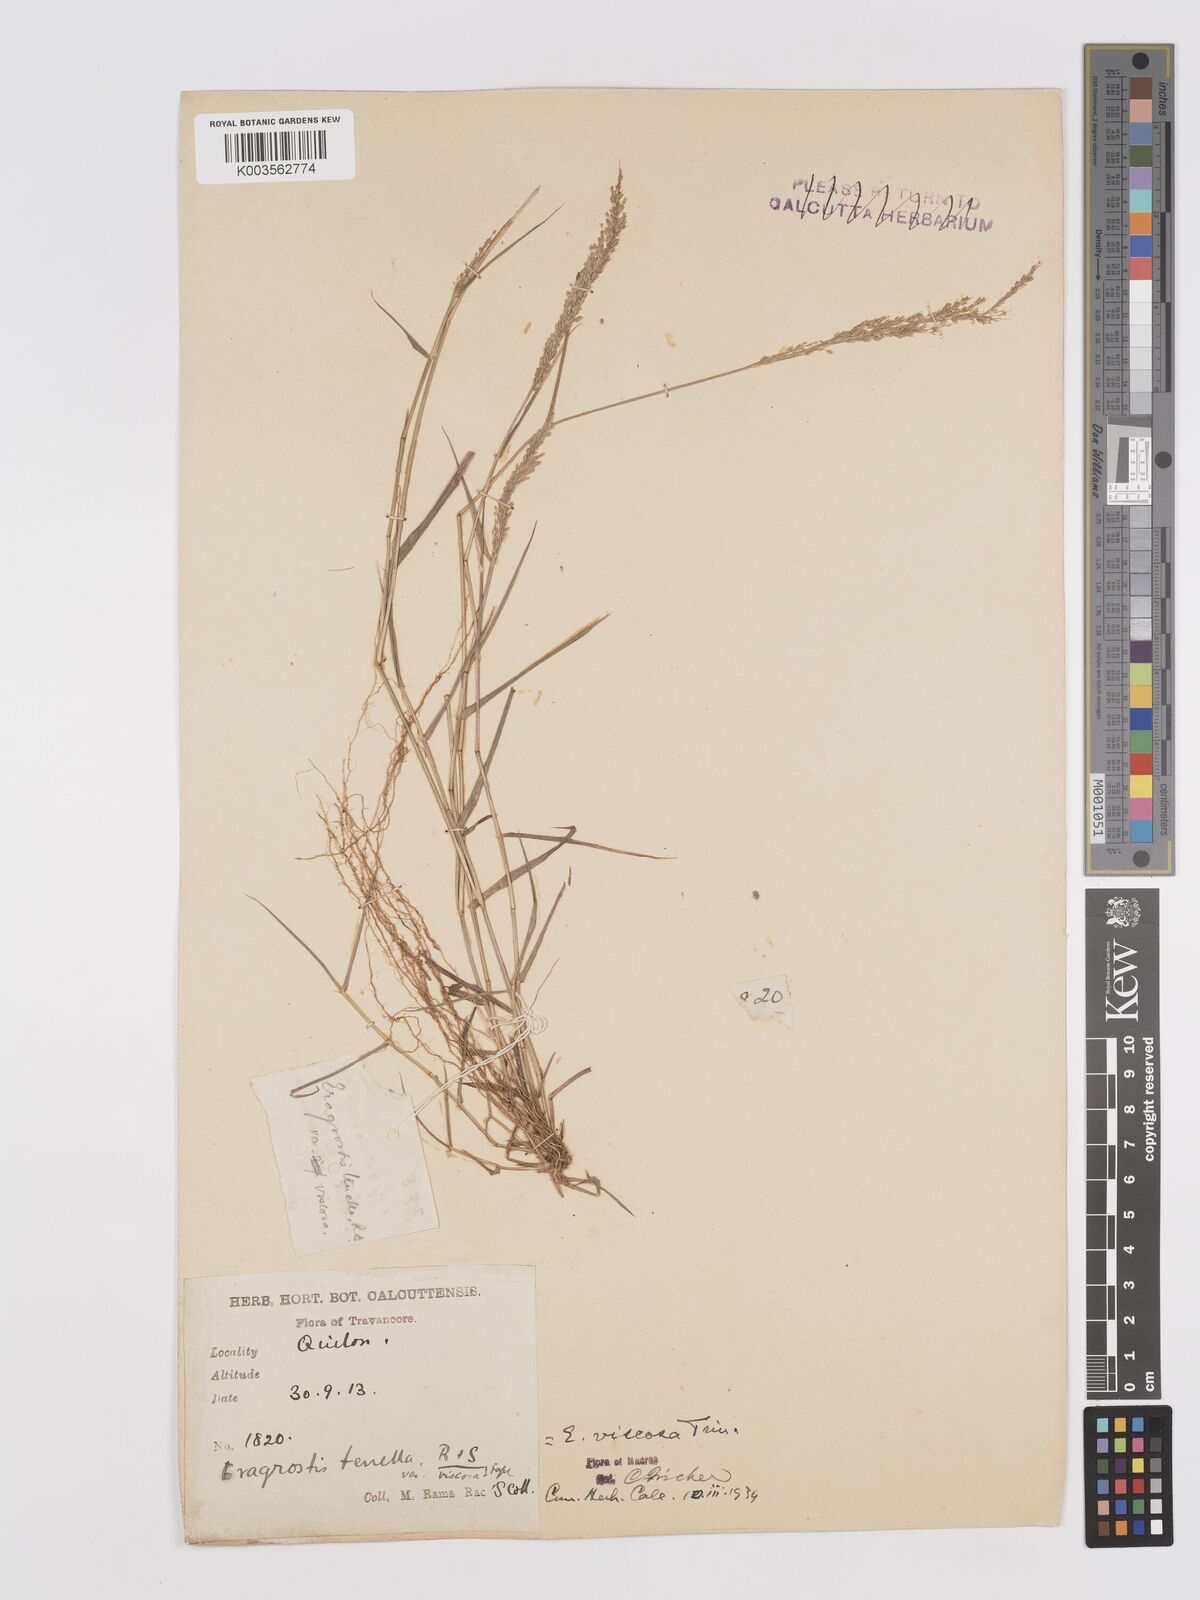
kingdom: Plantae
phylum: Tracheophyta
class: Liliopsida
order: Poales
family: Poaceae
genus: Eragrostis
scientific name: Eragrostis viscosa
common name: Sticky love grass
